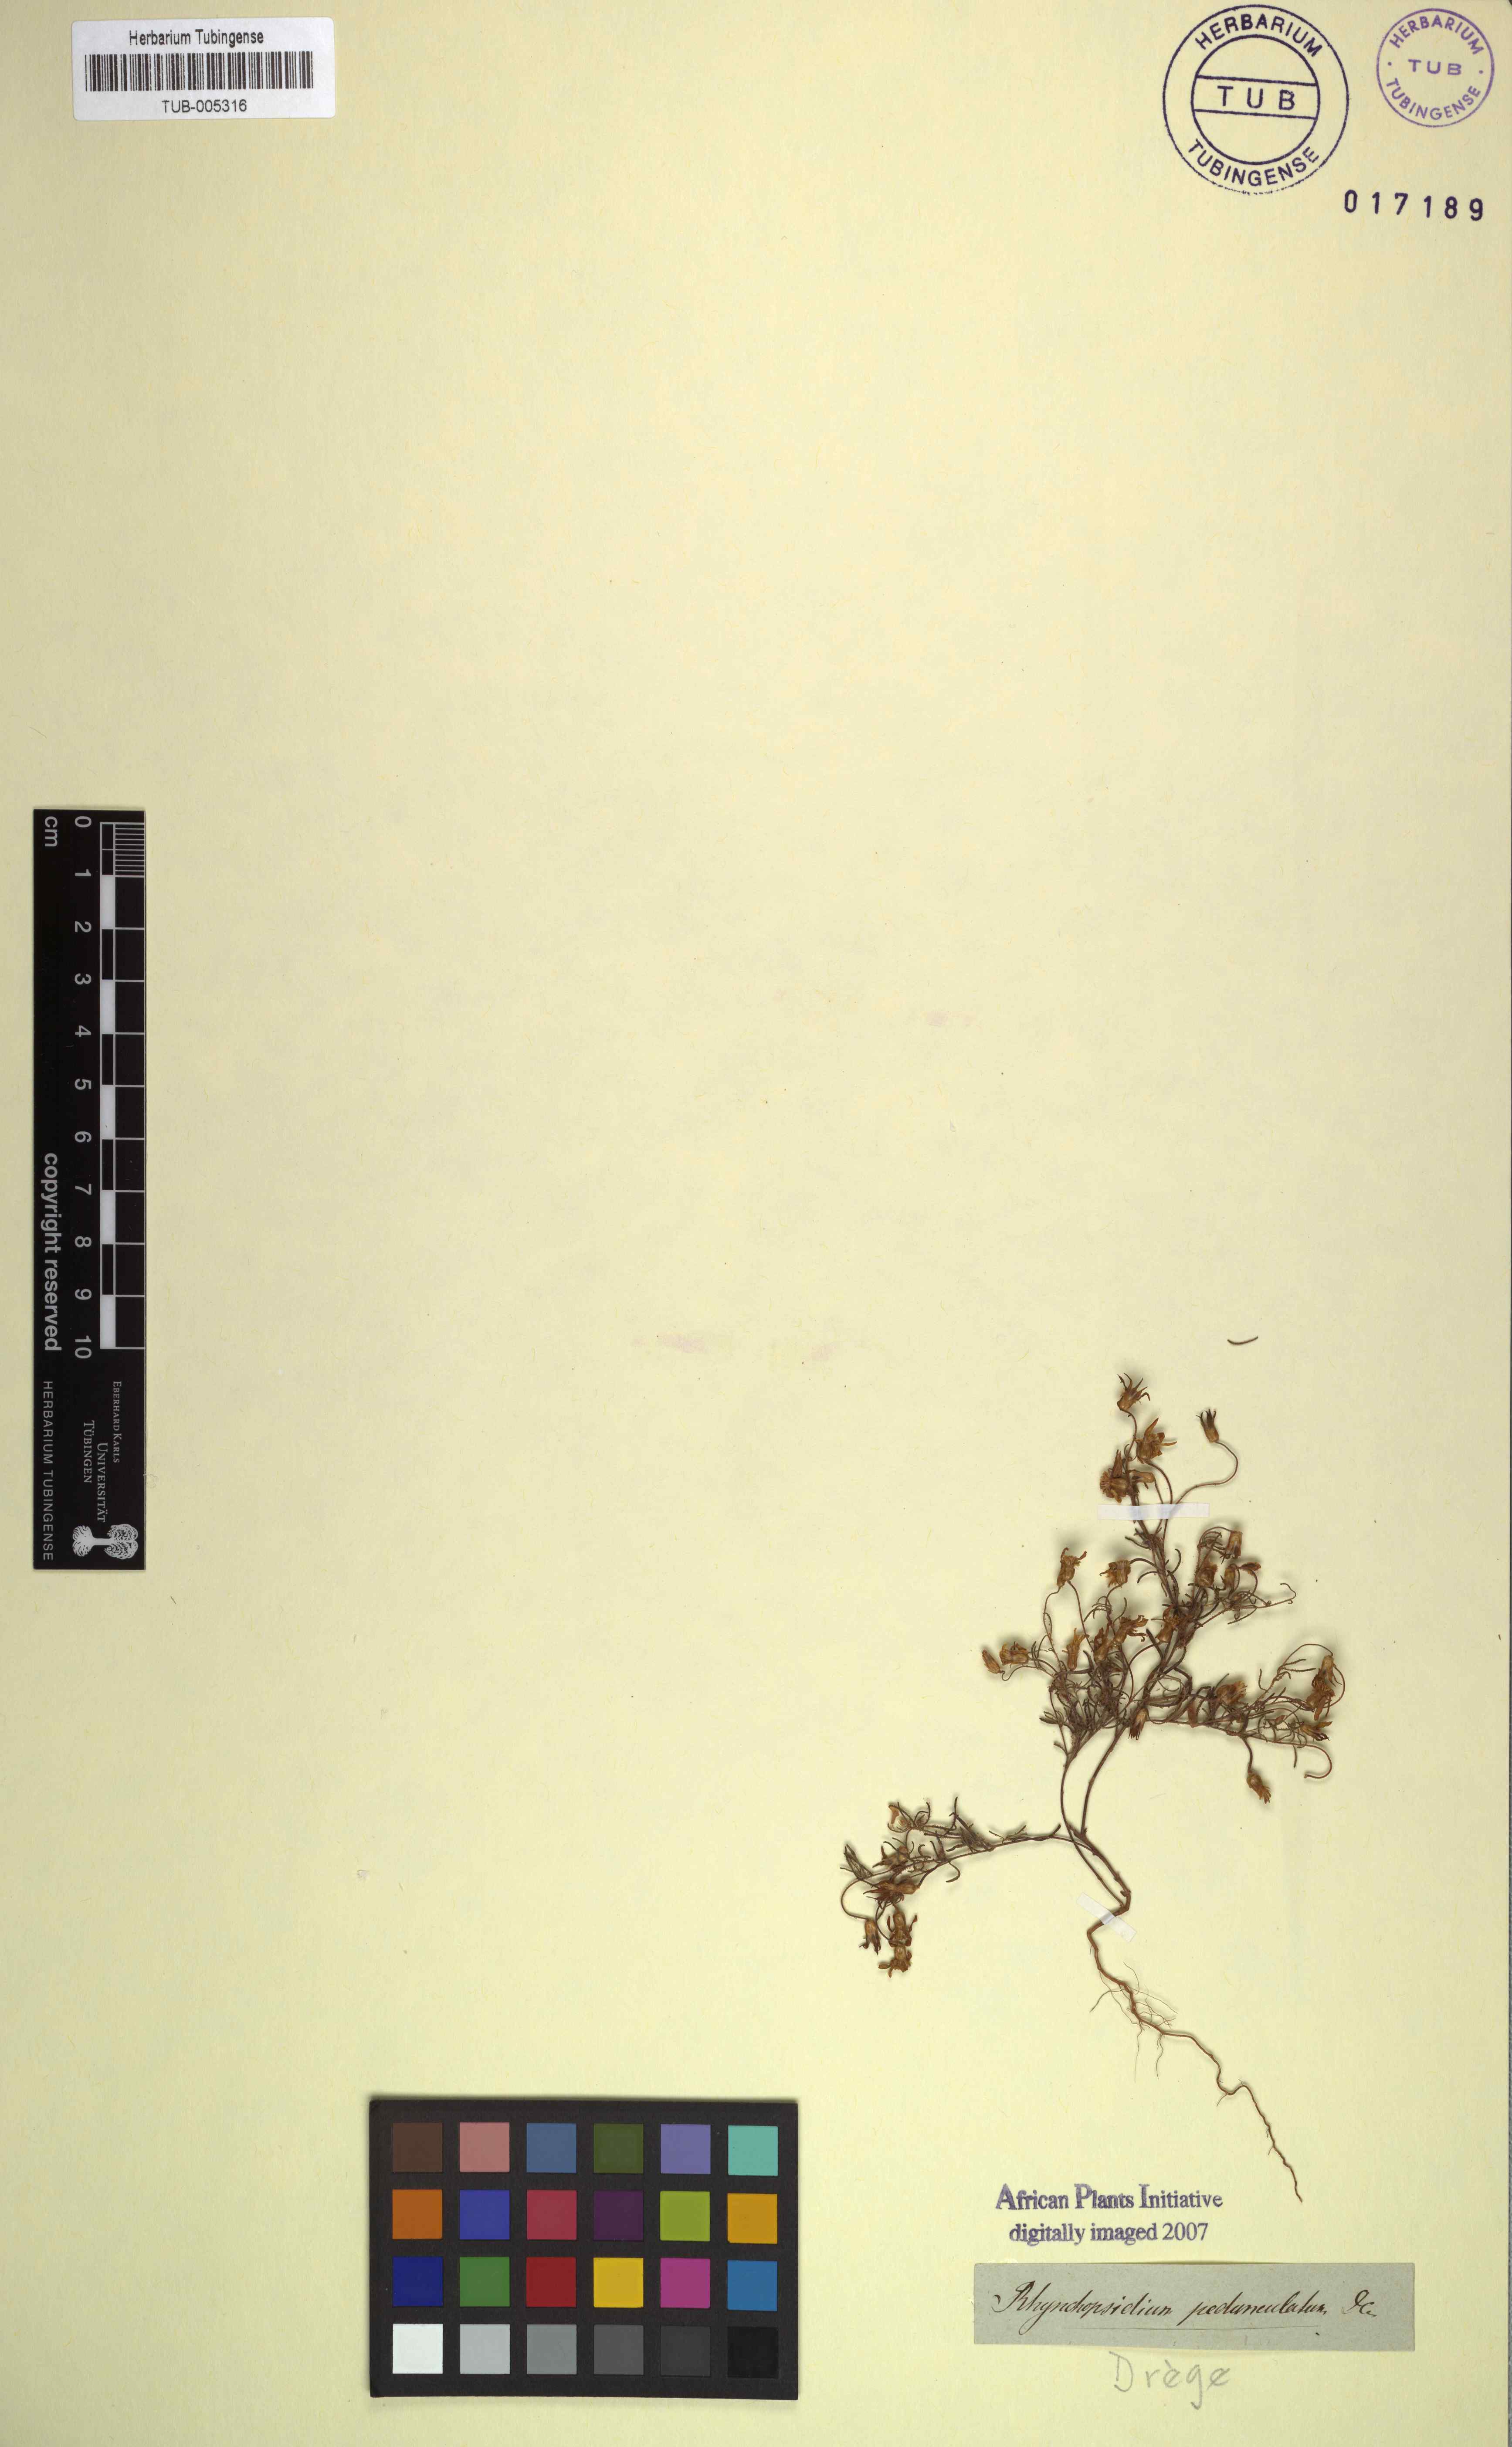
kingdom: Plantae
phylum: Tracheophyta
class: Magnoliopsida
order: Asterales
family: Asteraceae
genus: Rhynchopsidium
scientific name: Rhynchopsidium pumilum
